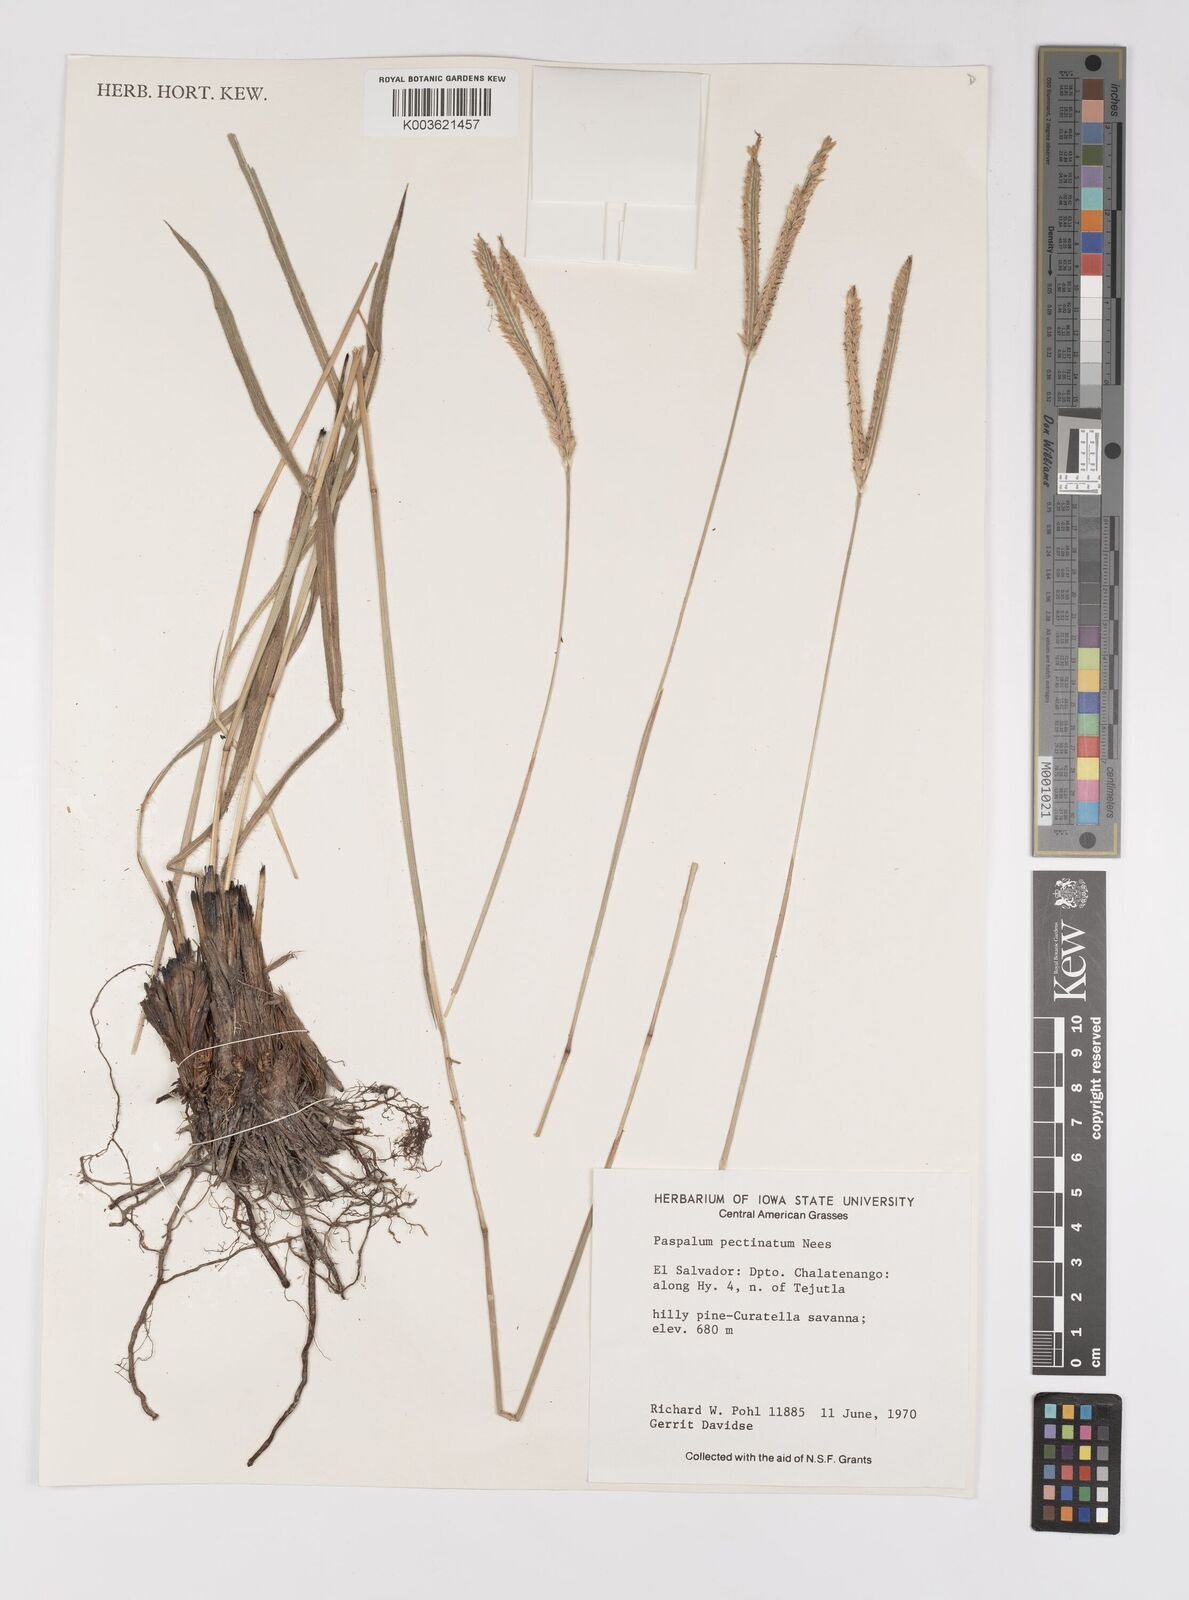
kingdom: Plantae
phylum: Tracheophyta
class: Liliopsida
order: Poales
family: Poaceae
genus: Paspalum
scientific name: Paspalum pectinatum
